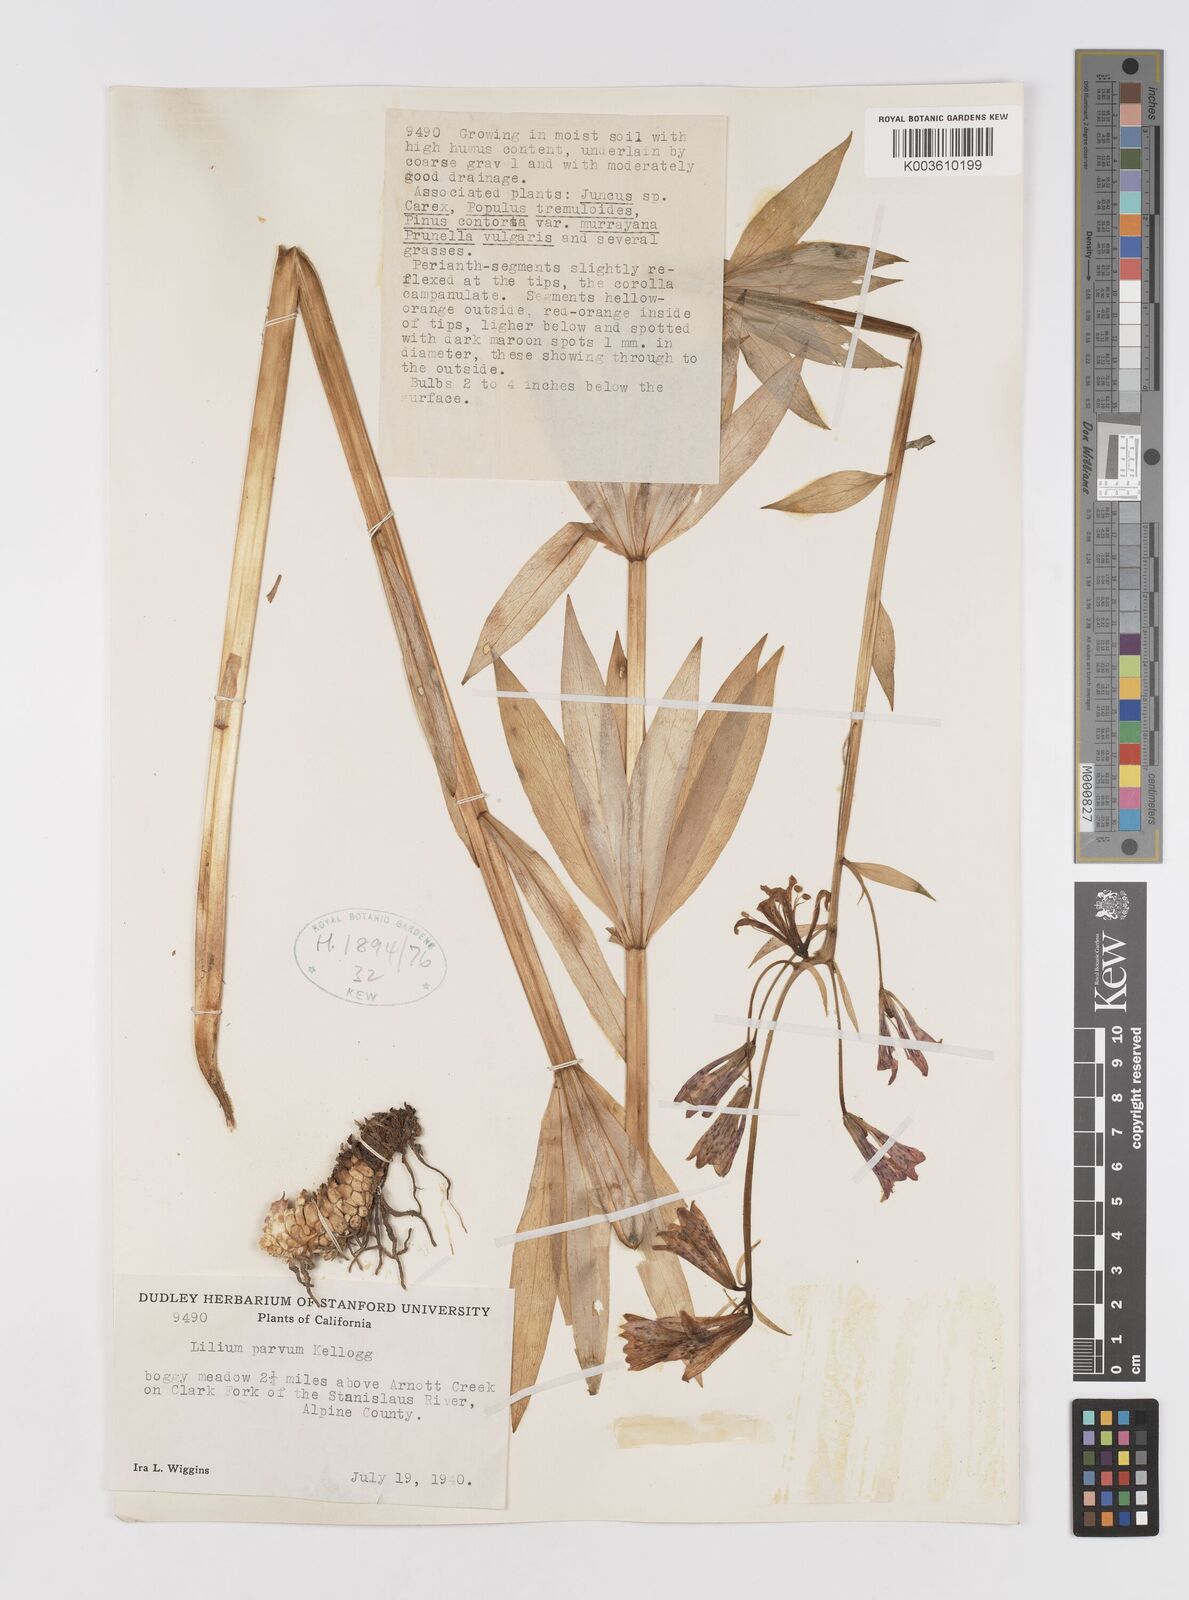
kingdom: Plantae
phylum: Tracheophyta
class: Liliopsida
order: Liliales
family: Liliaceae
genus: Lilium
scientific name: Lilium parvum
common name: Alpine lily
